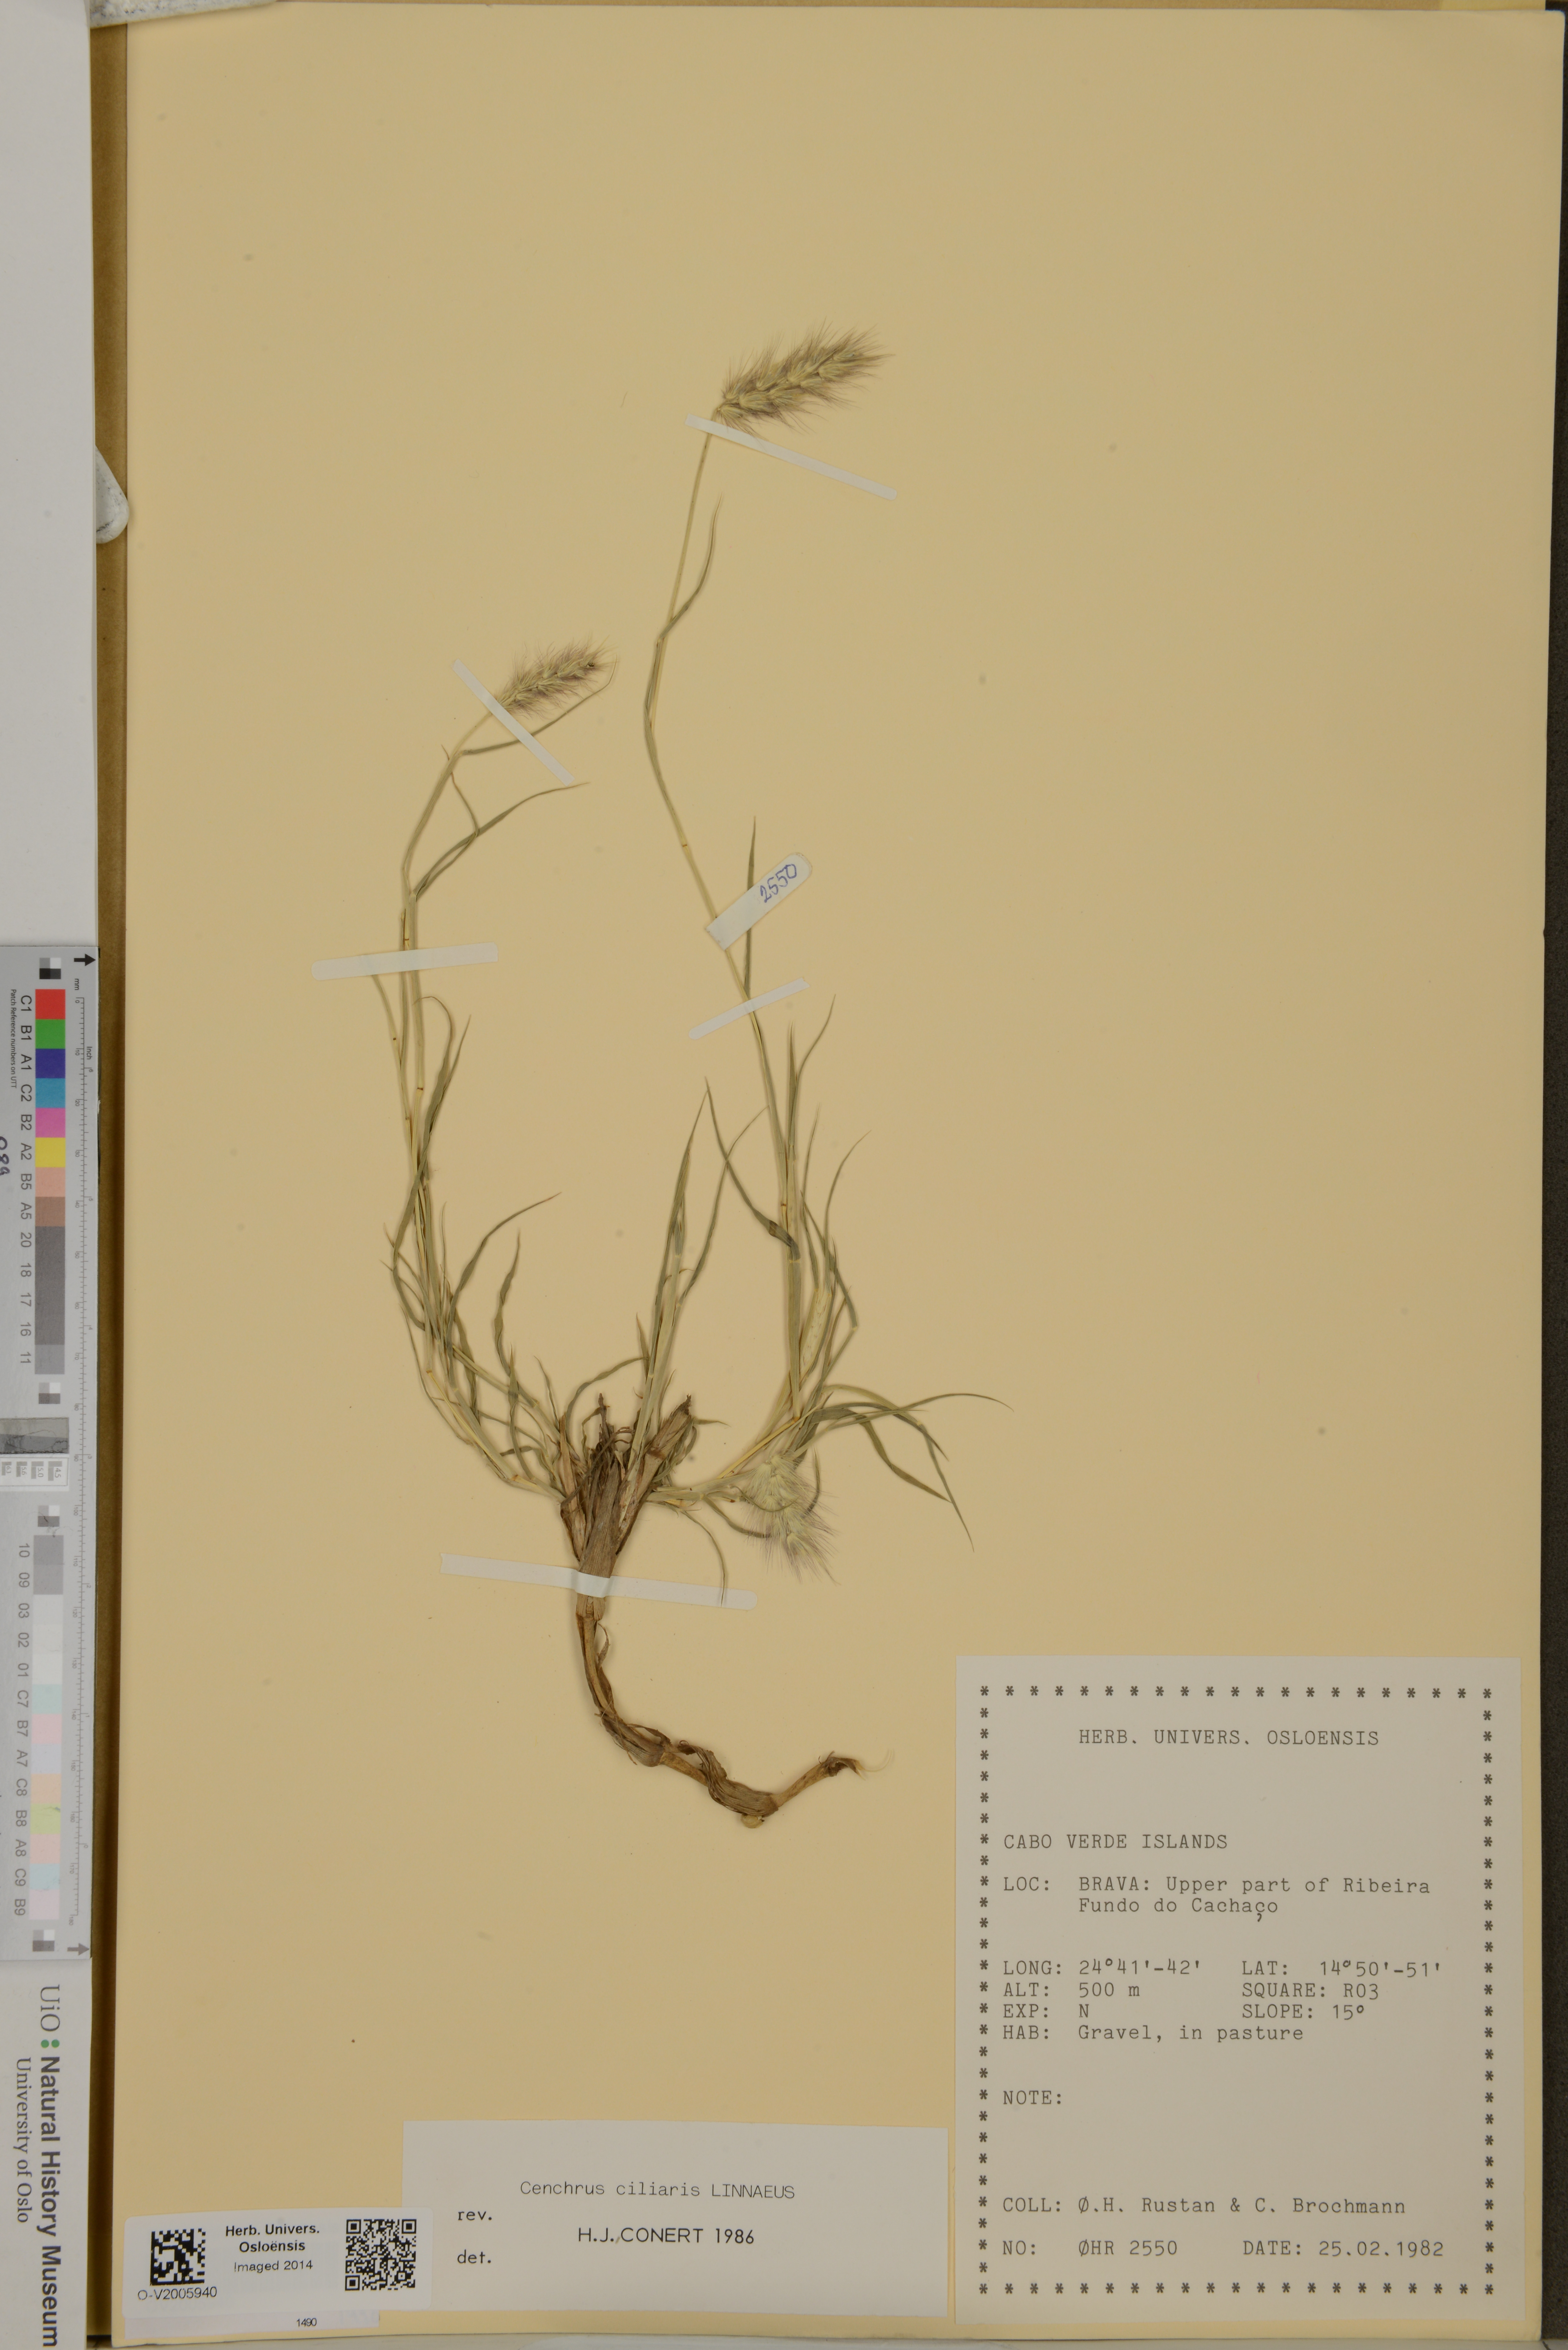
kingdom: Plantae
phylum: Tracheophyta
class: Liliopsida
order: Poales
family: Poaceae
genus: Cenchrus
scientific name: Cenchrus ciliaris
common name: Buffelgrass
